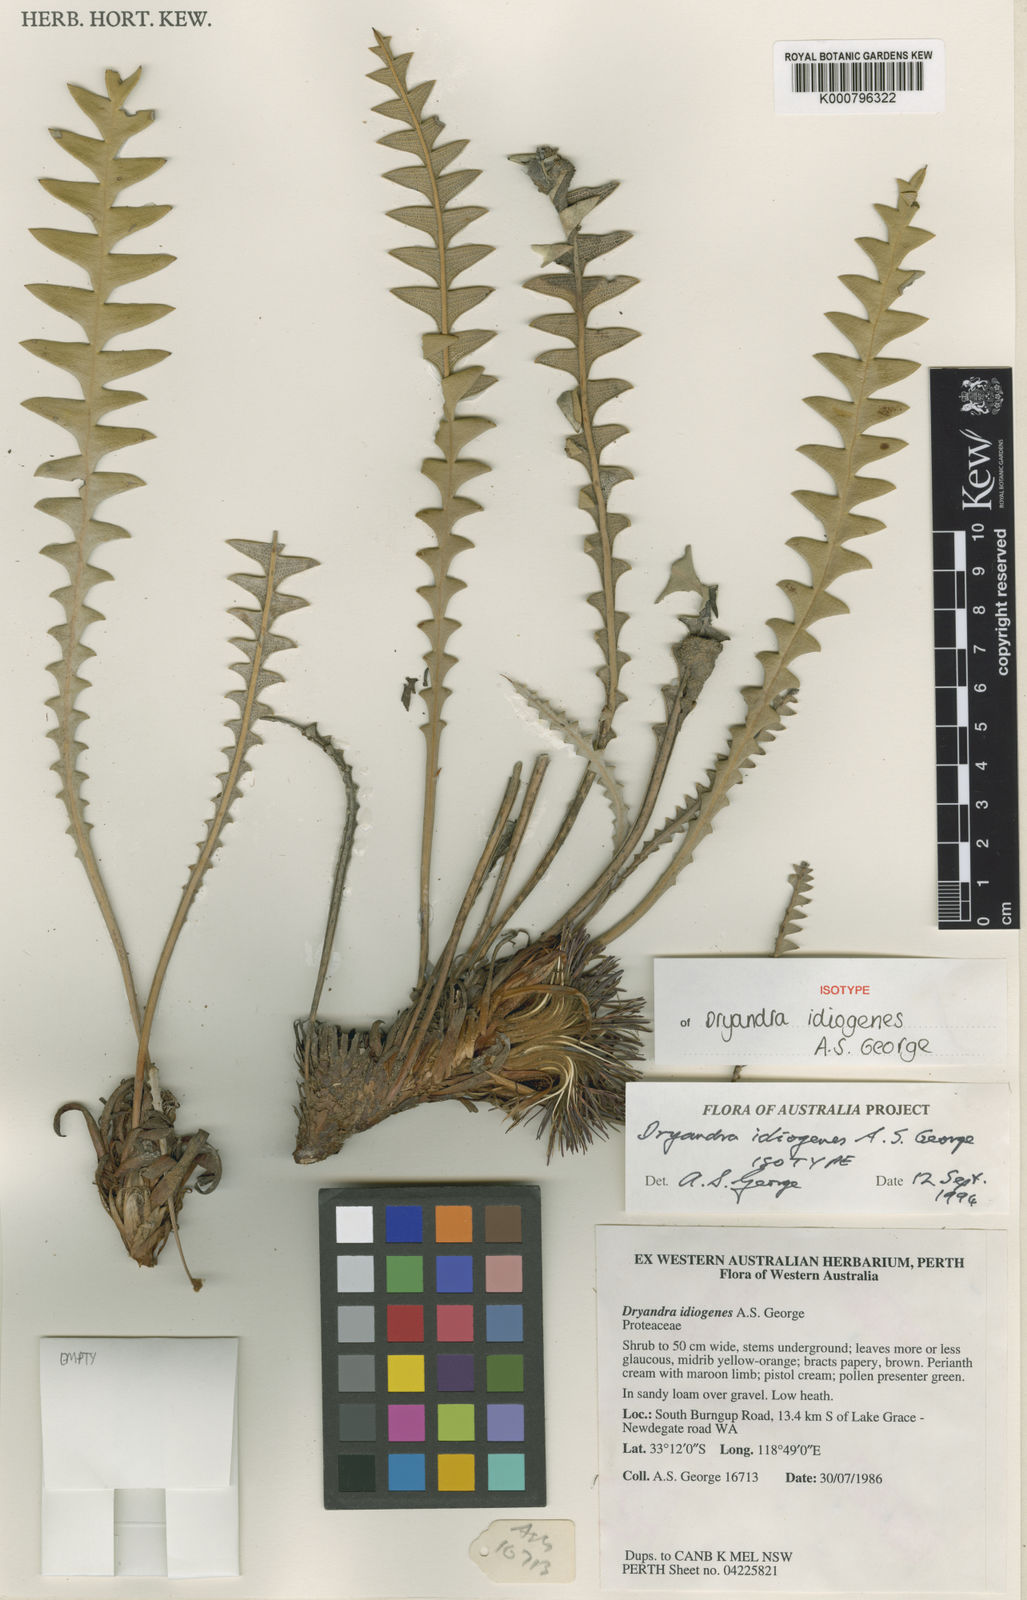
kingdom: Plantae
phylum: Tracheophyta
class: Magnoliopsida
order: Proteales
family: Proteaceae
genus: Banksia
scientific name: Banksia idiogenes
